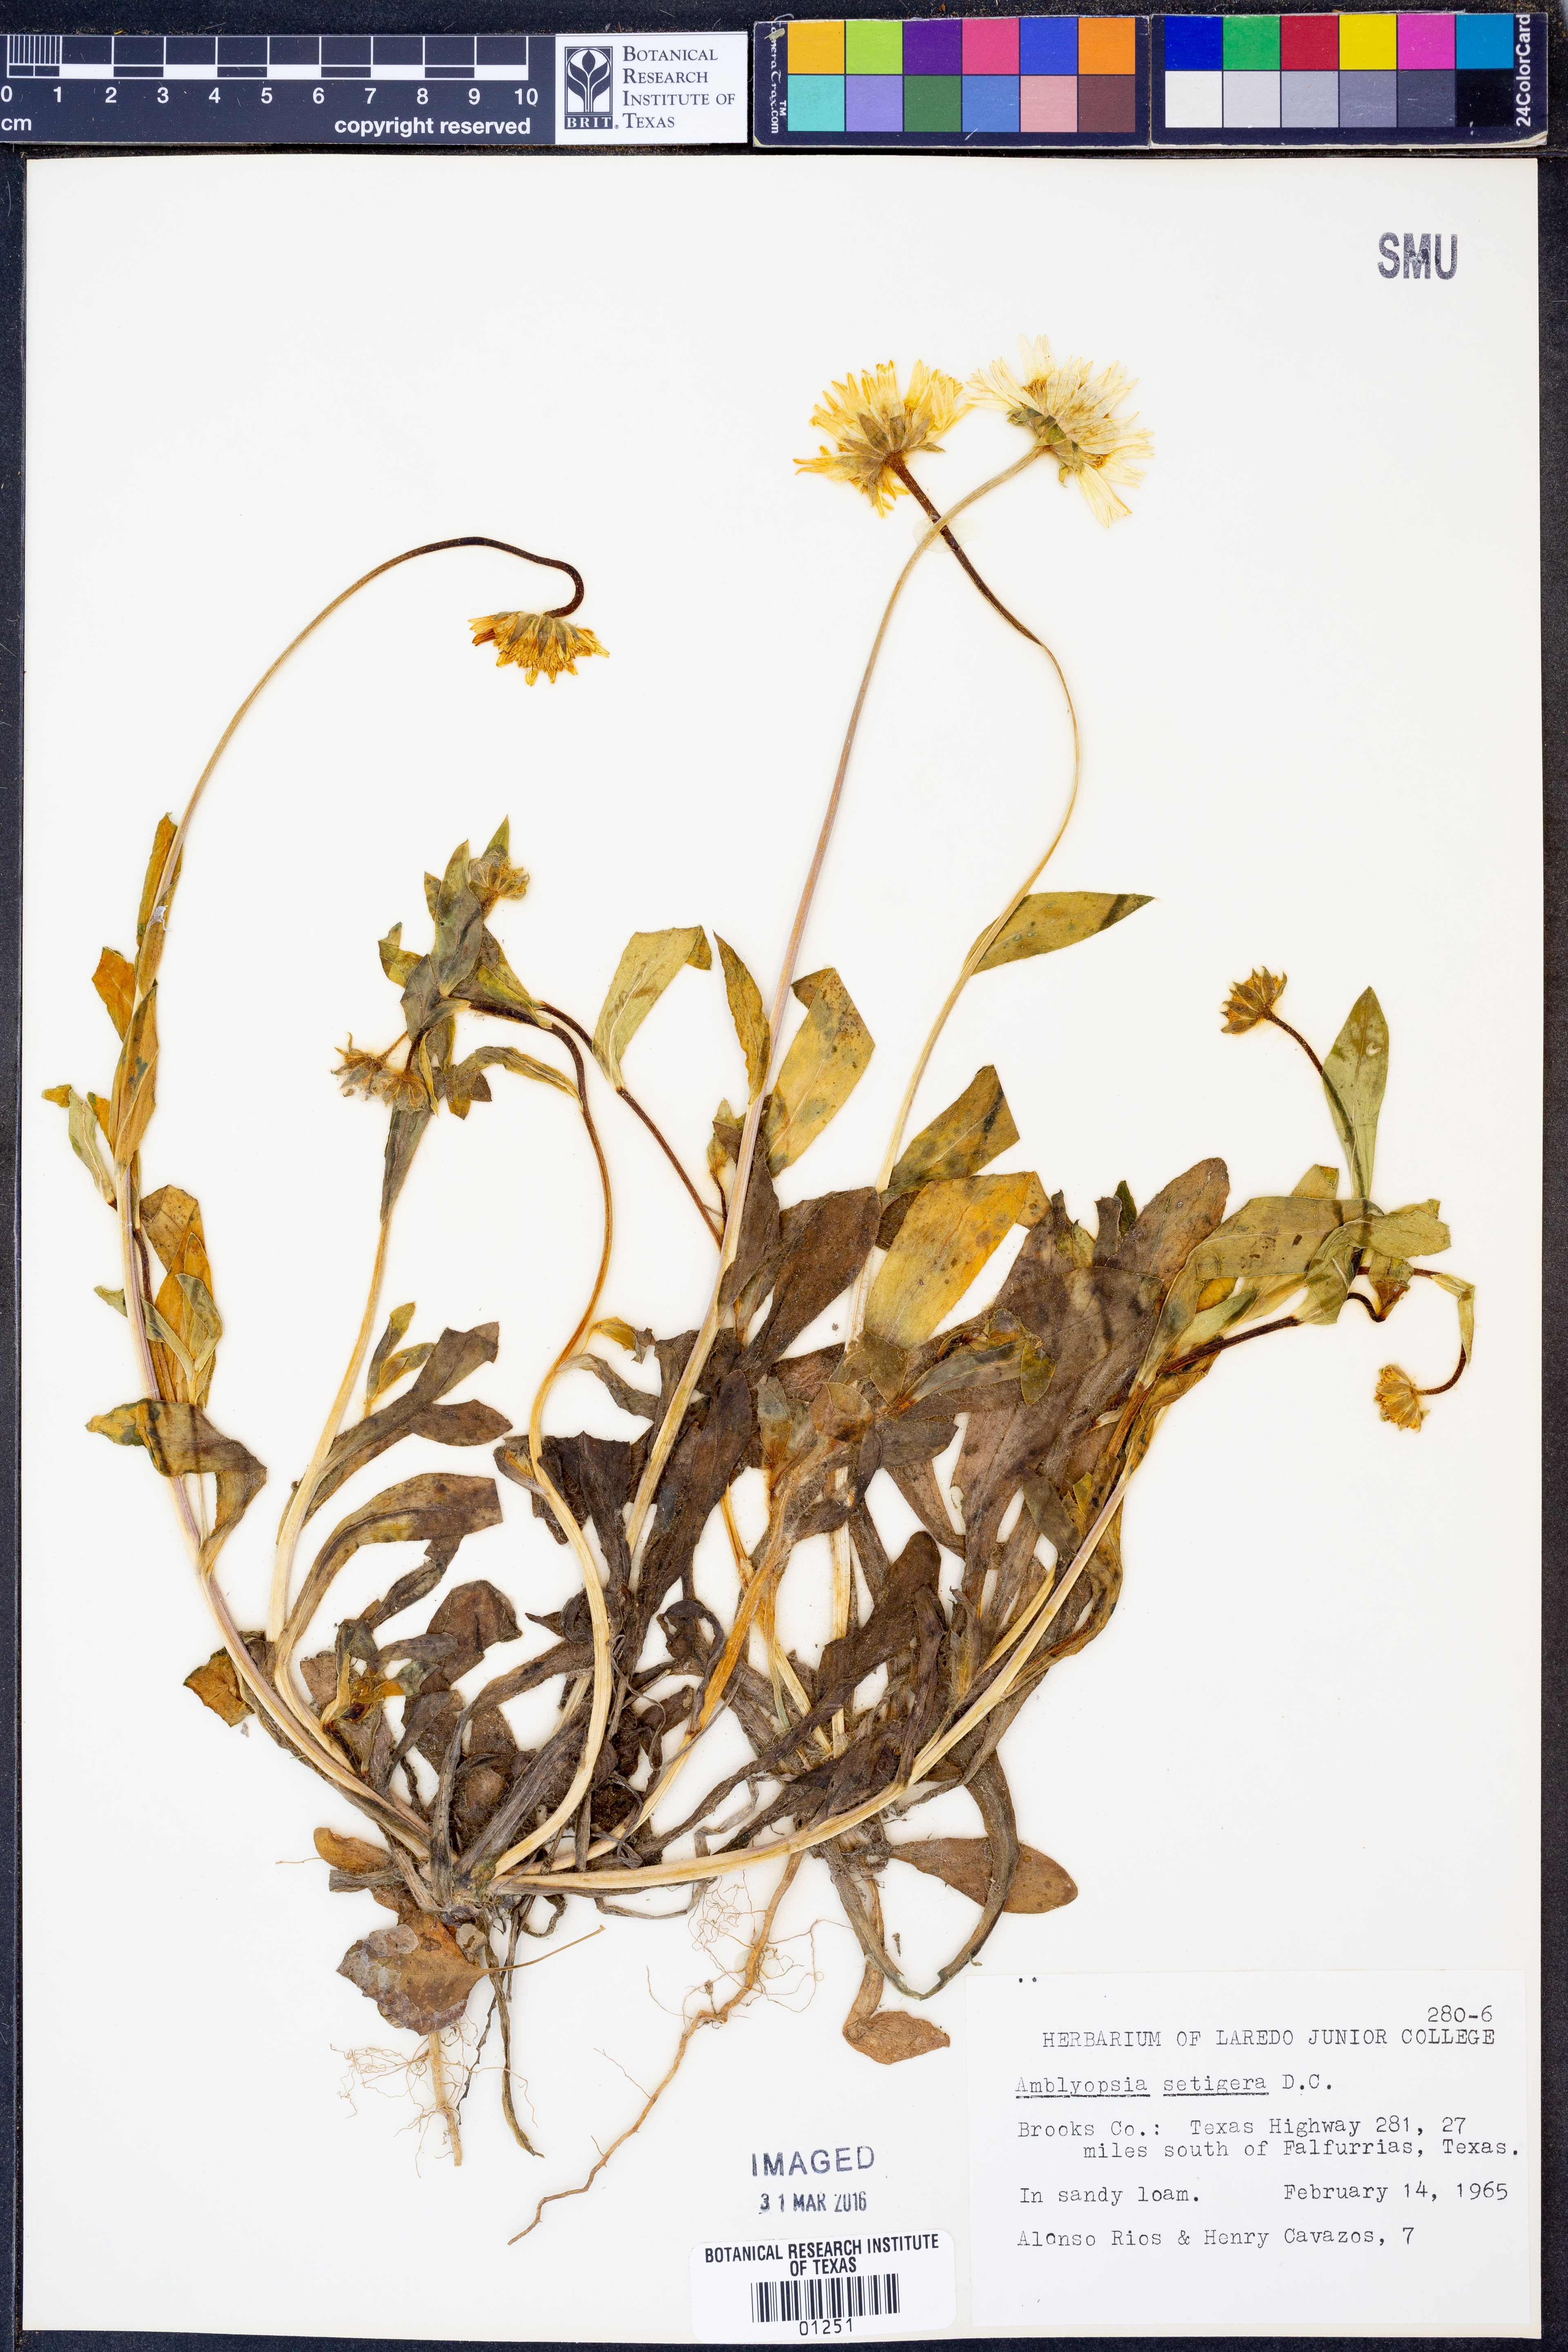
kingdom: Plantae
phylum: Tracheophyta
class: Magnoliopsida
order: Asterales
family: Asteraceae
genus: Amblyolepis
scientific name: Amblyolepis setigera
